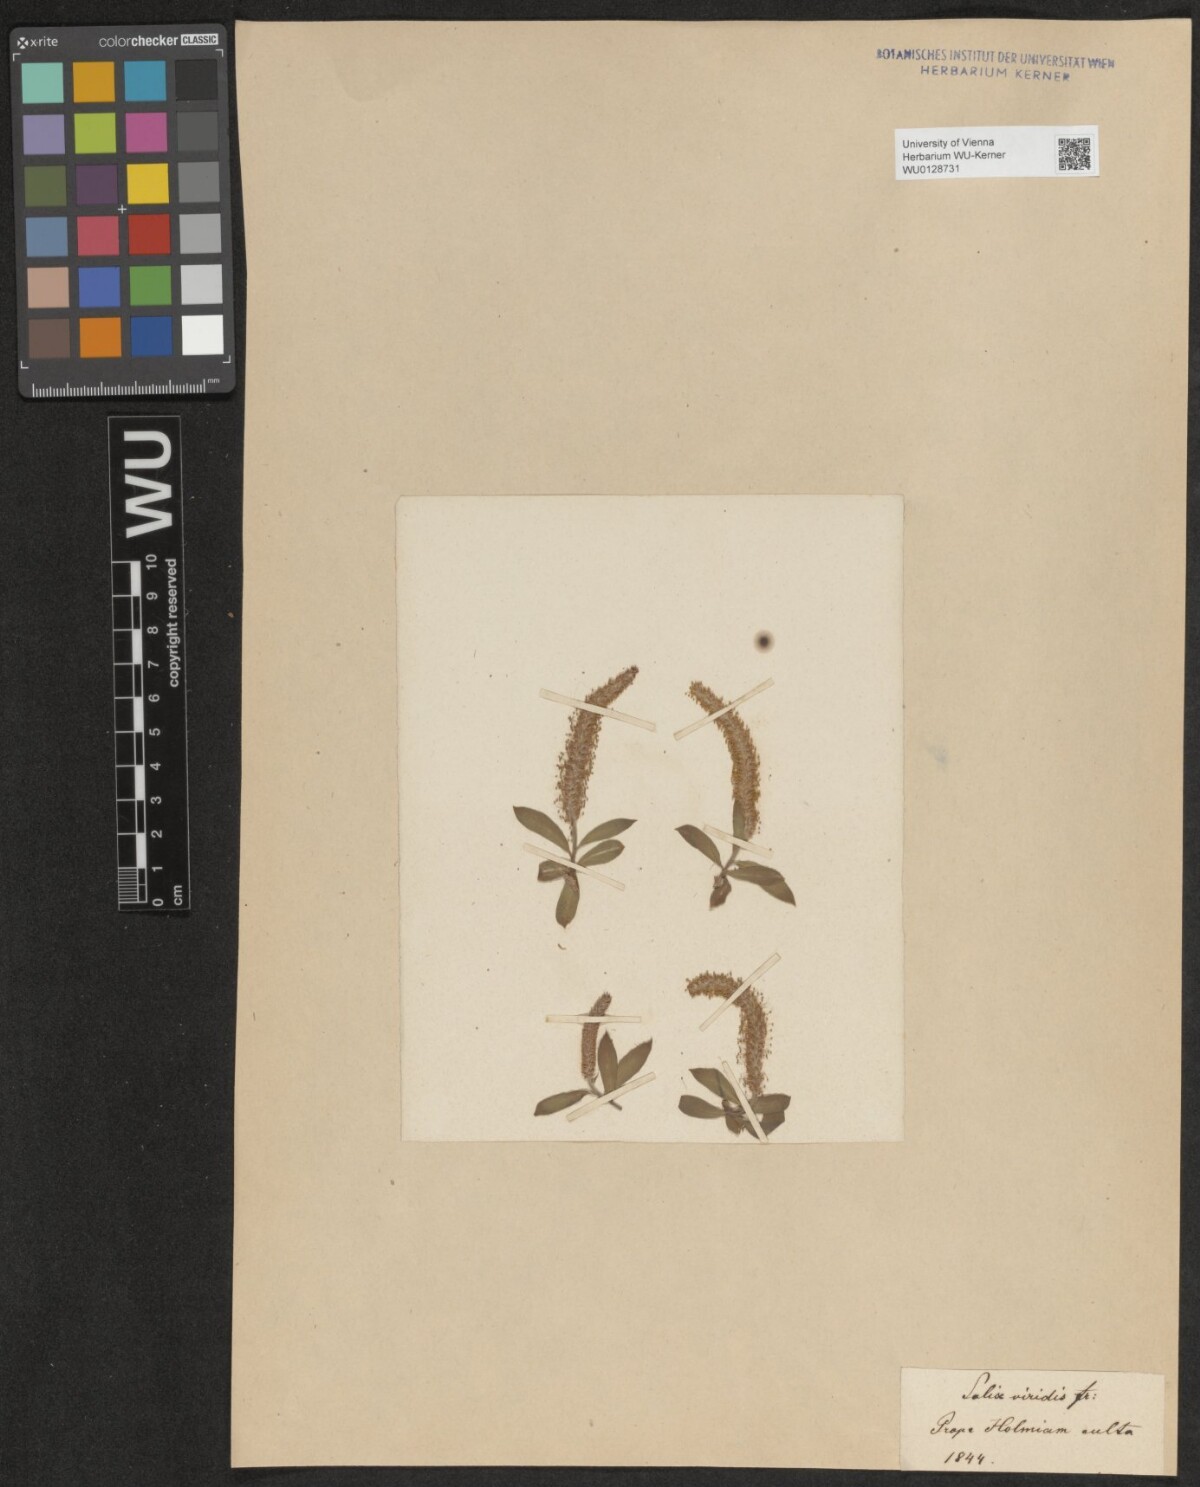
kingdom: Plantae
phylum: Tracheophyta
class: Magnoliopsida
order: Malpighiales
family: Salicaceae
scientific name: Salicaceae
